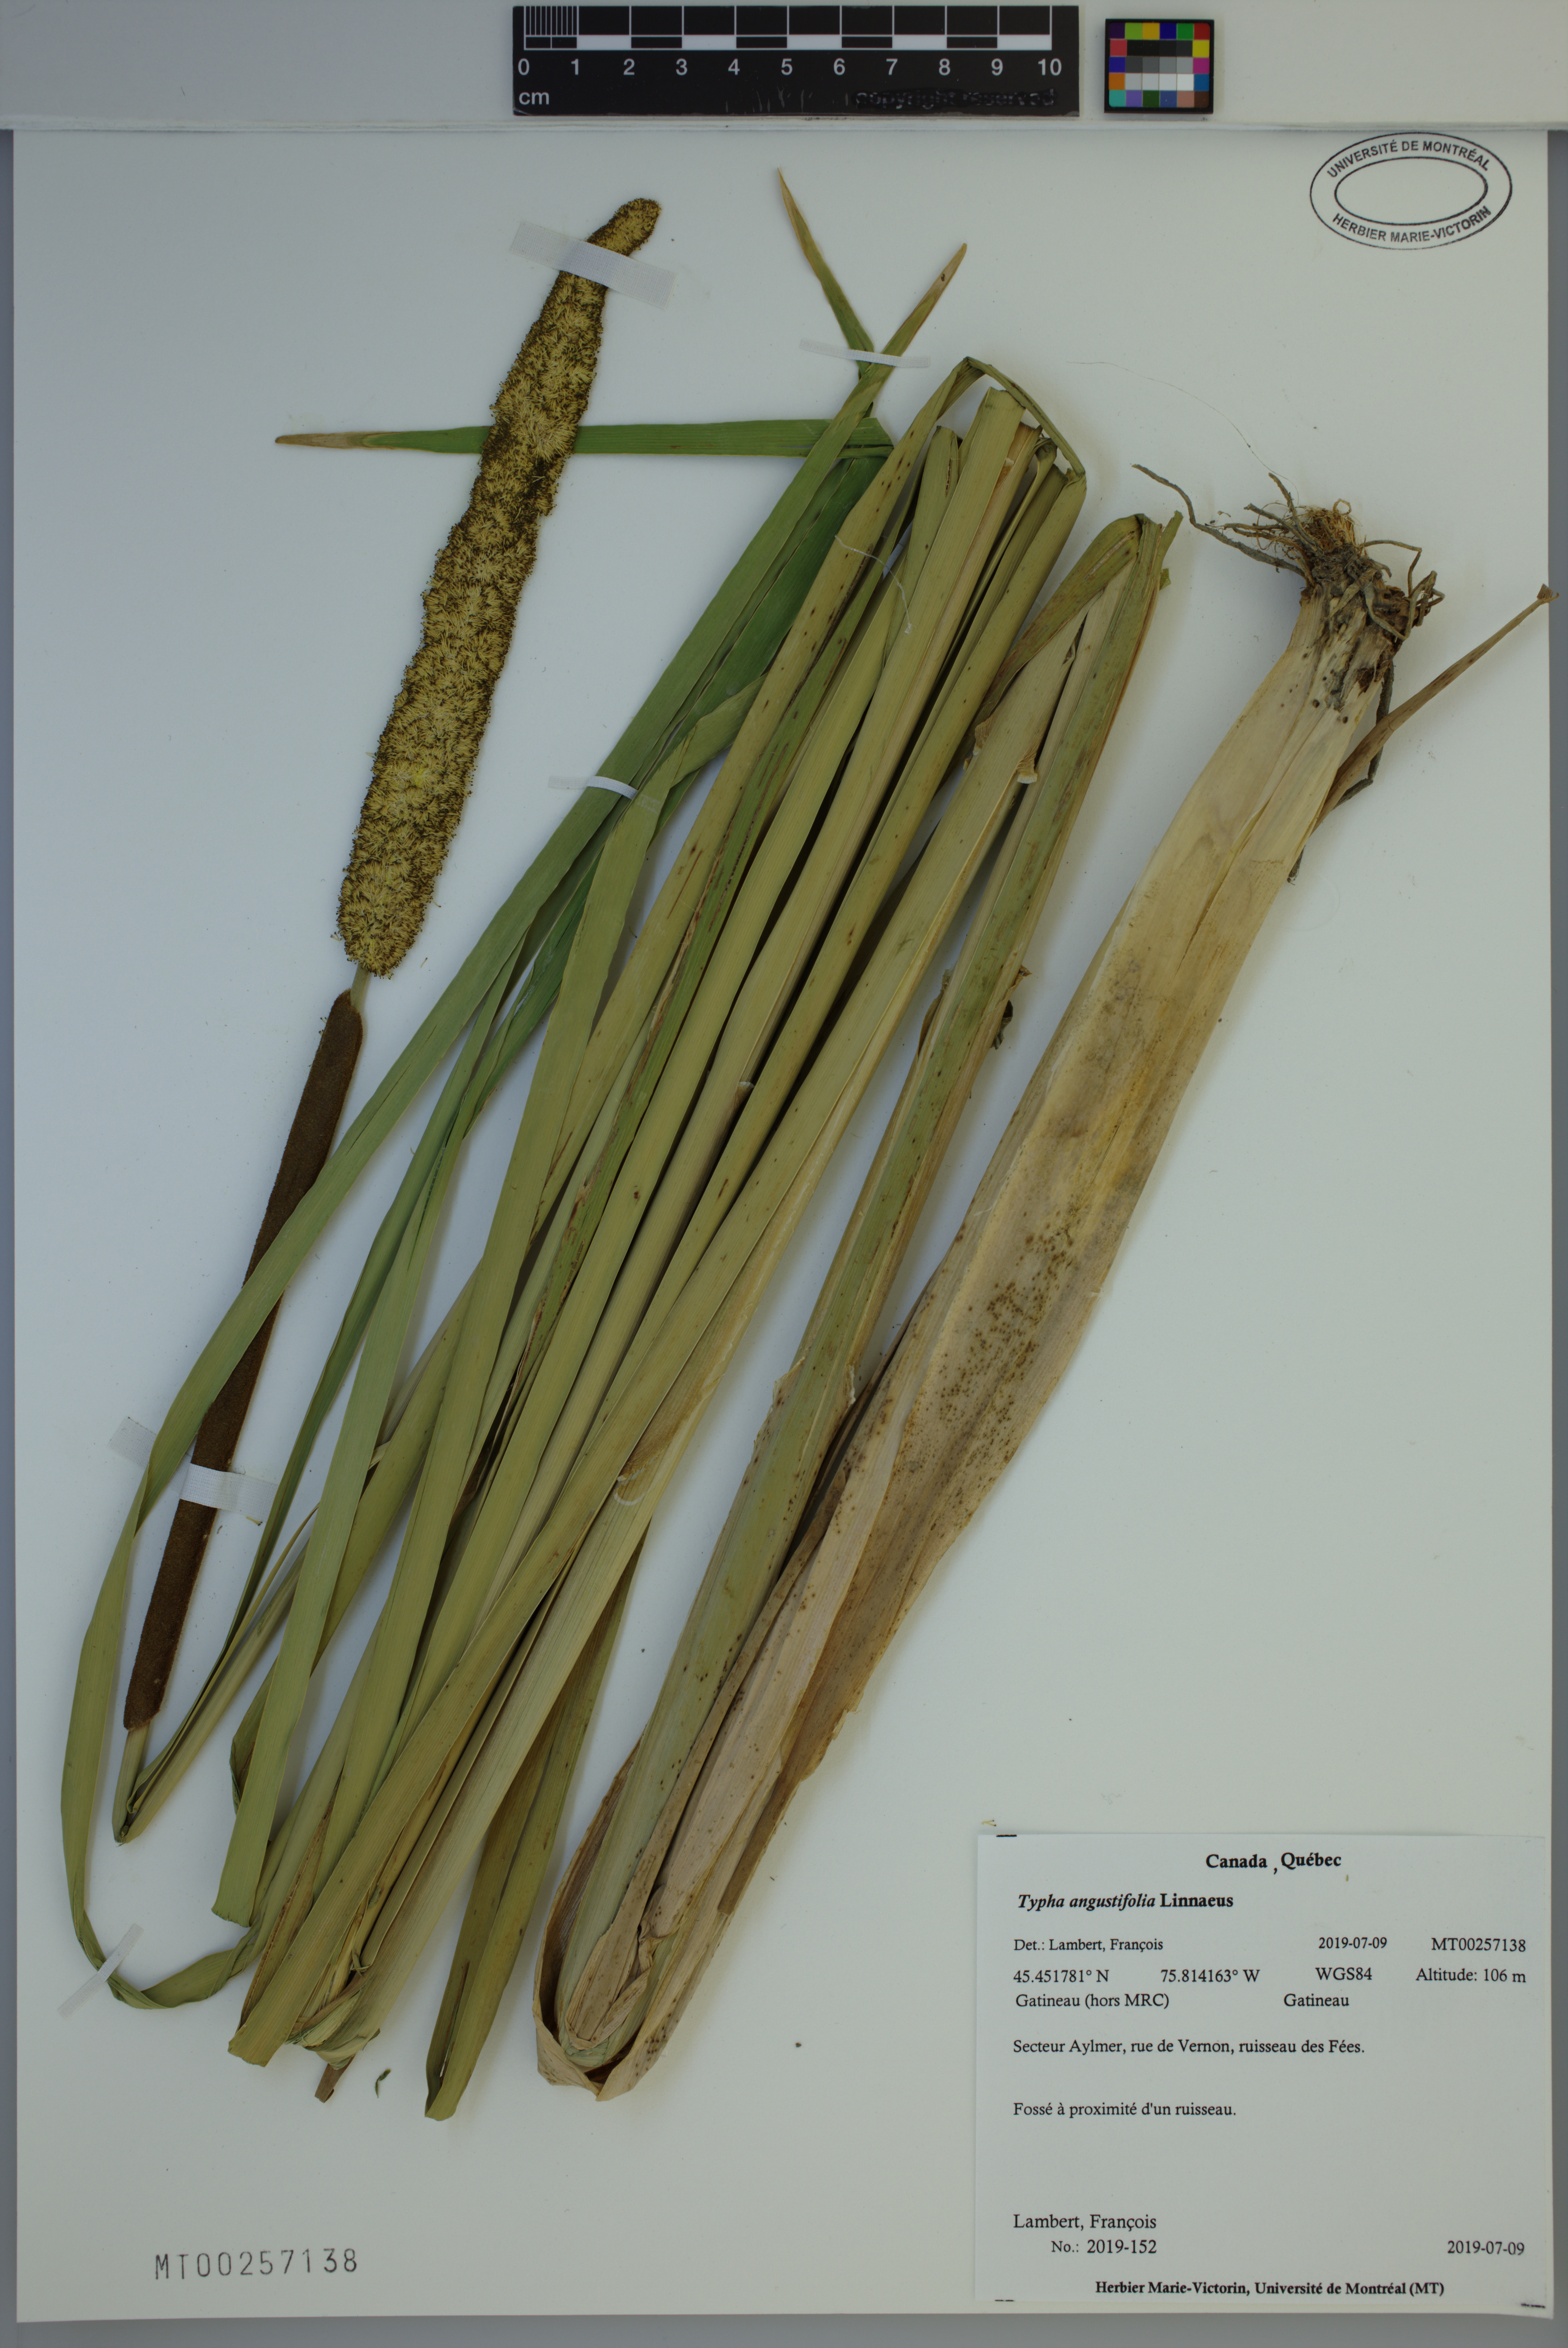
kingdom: Plantae
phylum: Tracheophyta
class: Liliopsida
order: Poales
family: Typhaceae
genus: Typha
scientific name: Typha angustifolia
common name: Lesser bulrush
